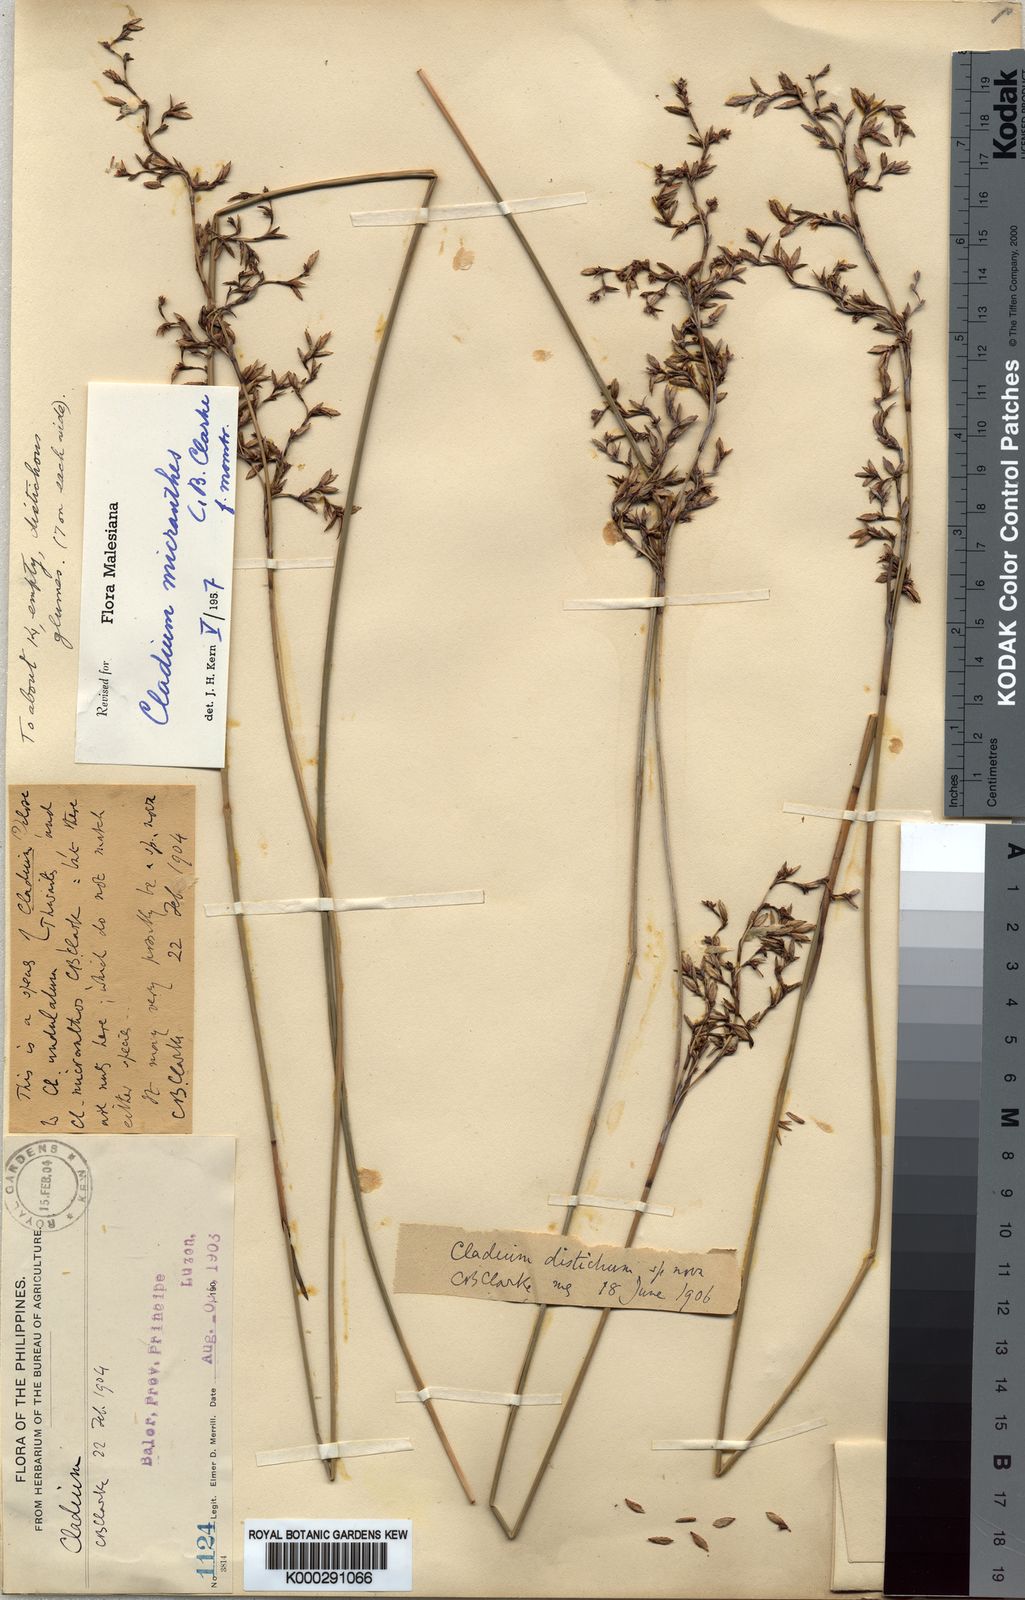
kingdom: Plantae
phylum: Tracheophyta
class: Liliopsida
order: Poales
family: Cyperaceae
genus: Machaerina
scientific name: Machaerina disticha
